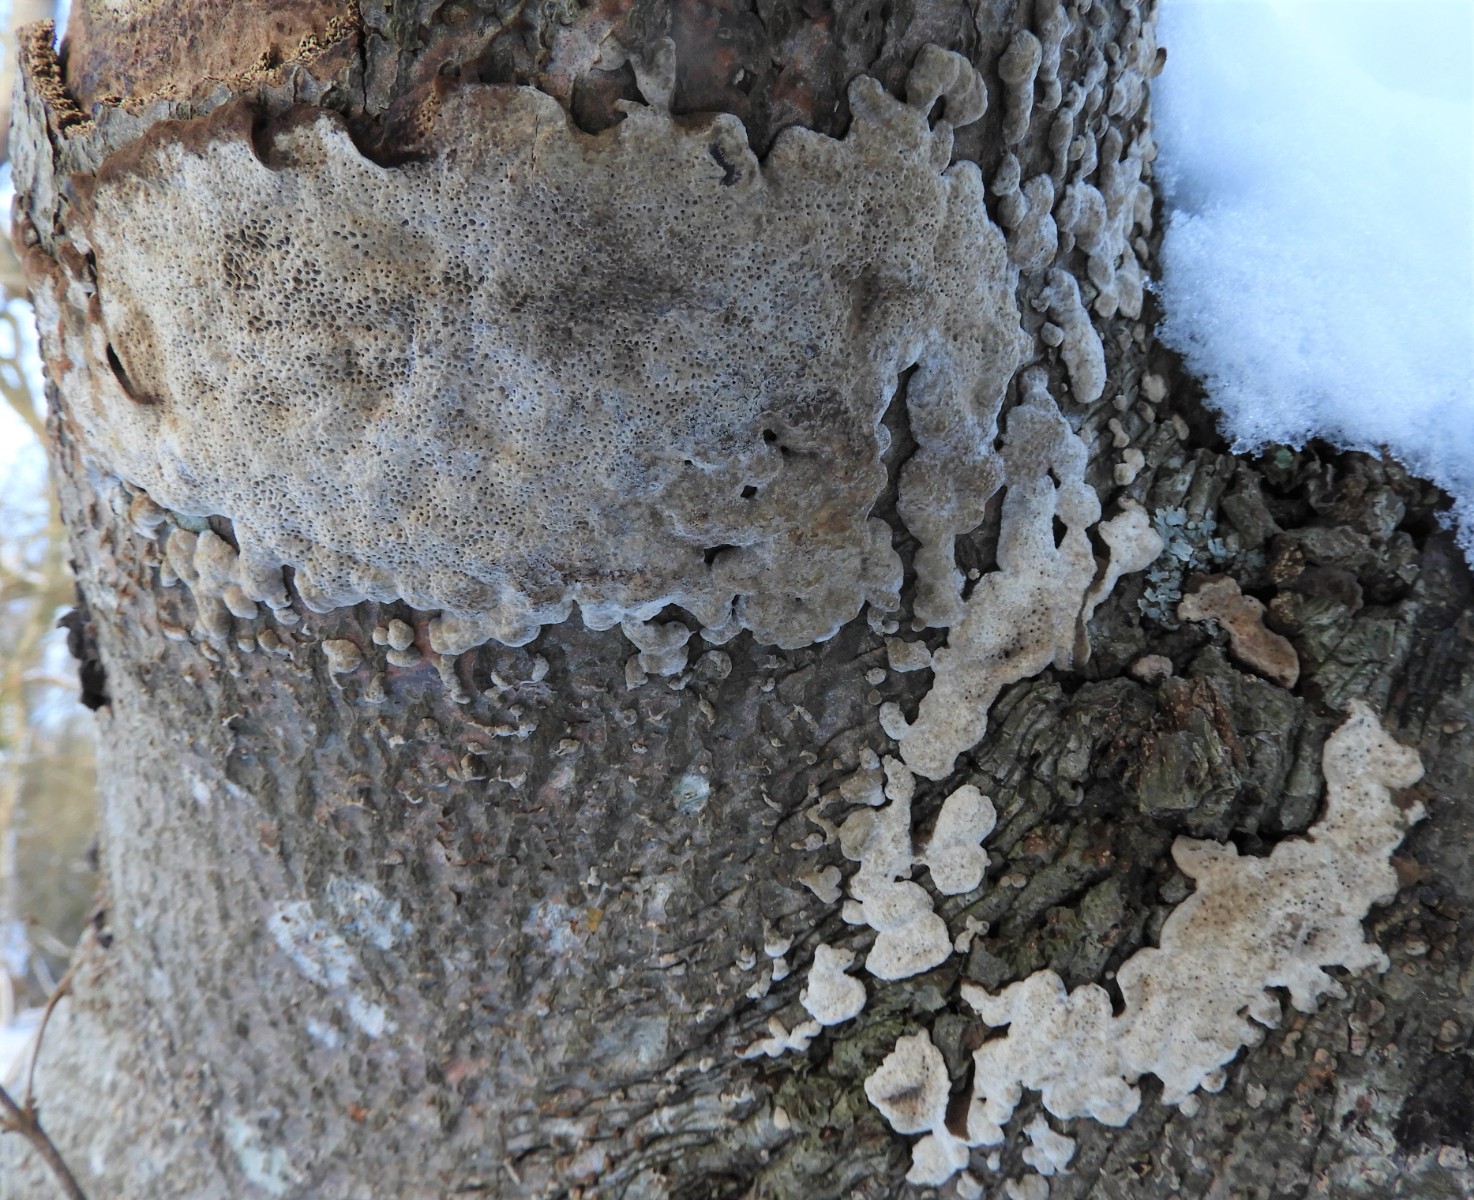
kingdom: Fungi
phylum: Basidiomycota
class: Agaricomycetes
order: Polyporales
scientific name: Polyporales
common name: poresvampordenen
